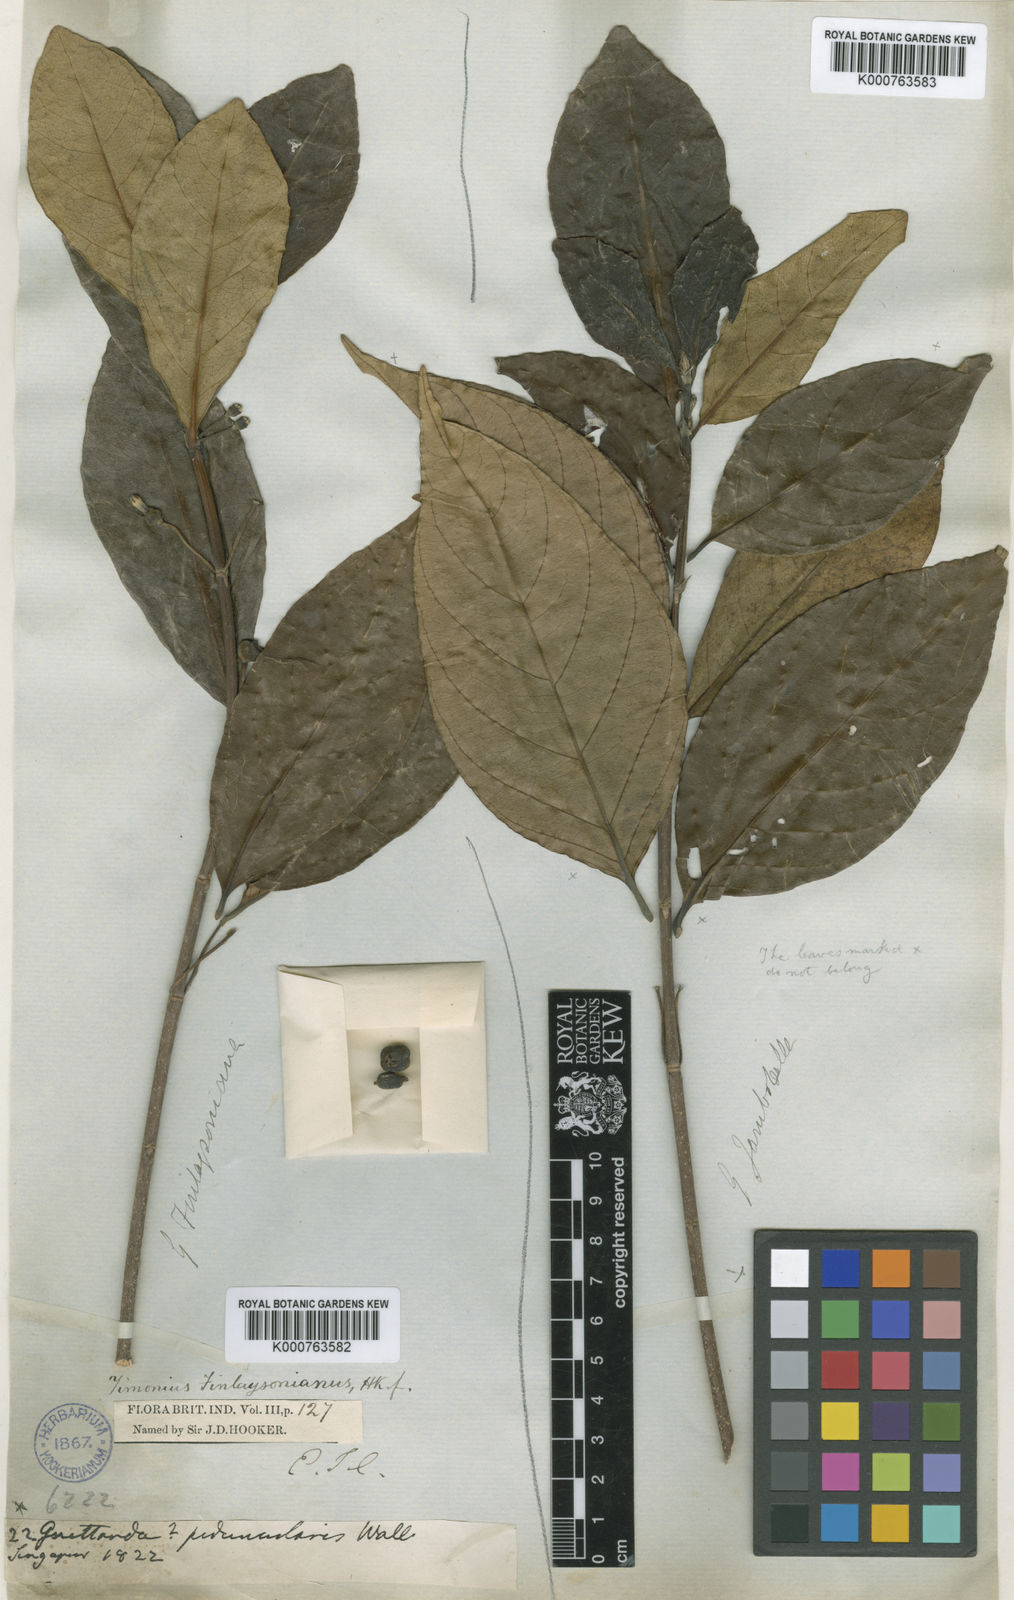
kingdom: Plantae
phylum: Tracheophyta
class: Magnoliopsida
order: Gentianales
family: Rubiaceae
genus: Timonius
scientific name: Timonius finlaysonianus
